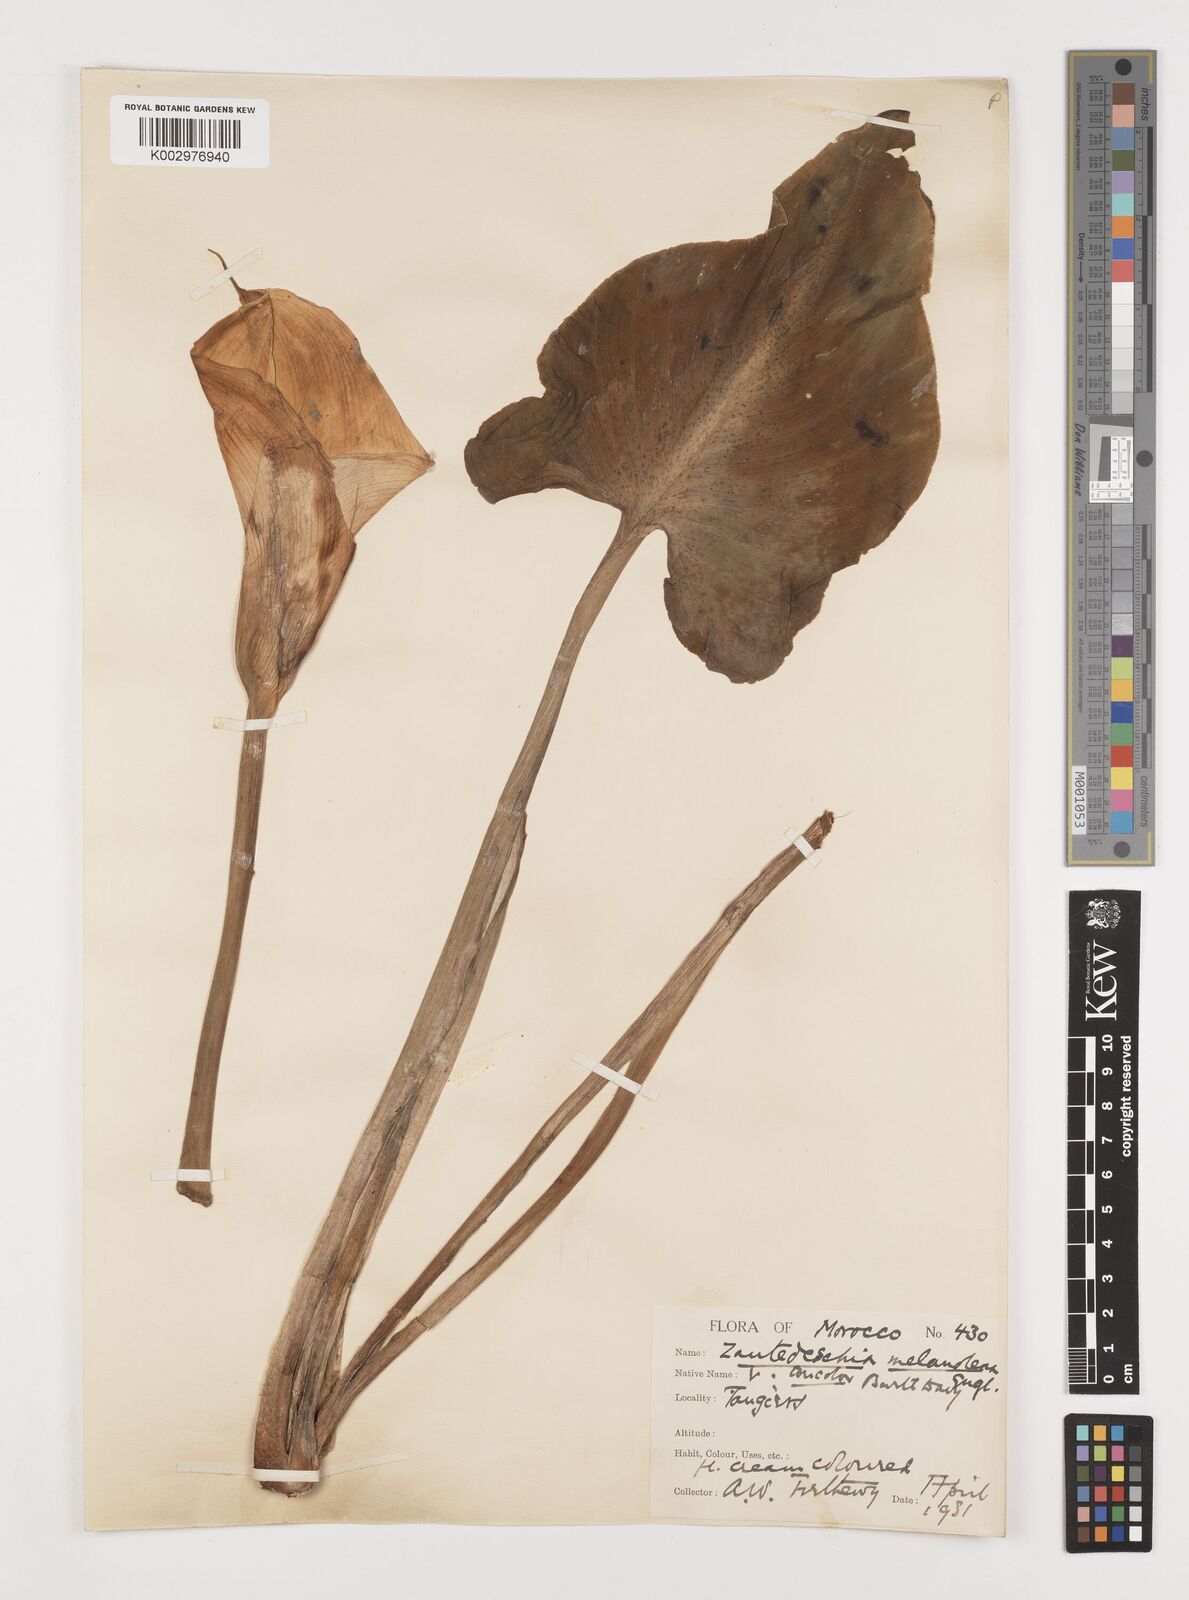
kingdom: Plantae
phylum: Tracheophyta
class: Liliopsida
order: Alismatales
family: Araceae
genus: Zantedeschia
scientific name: Zantedeschia albomaculata
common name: Spotted calla lily
